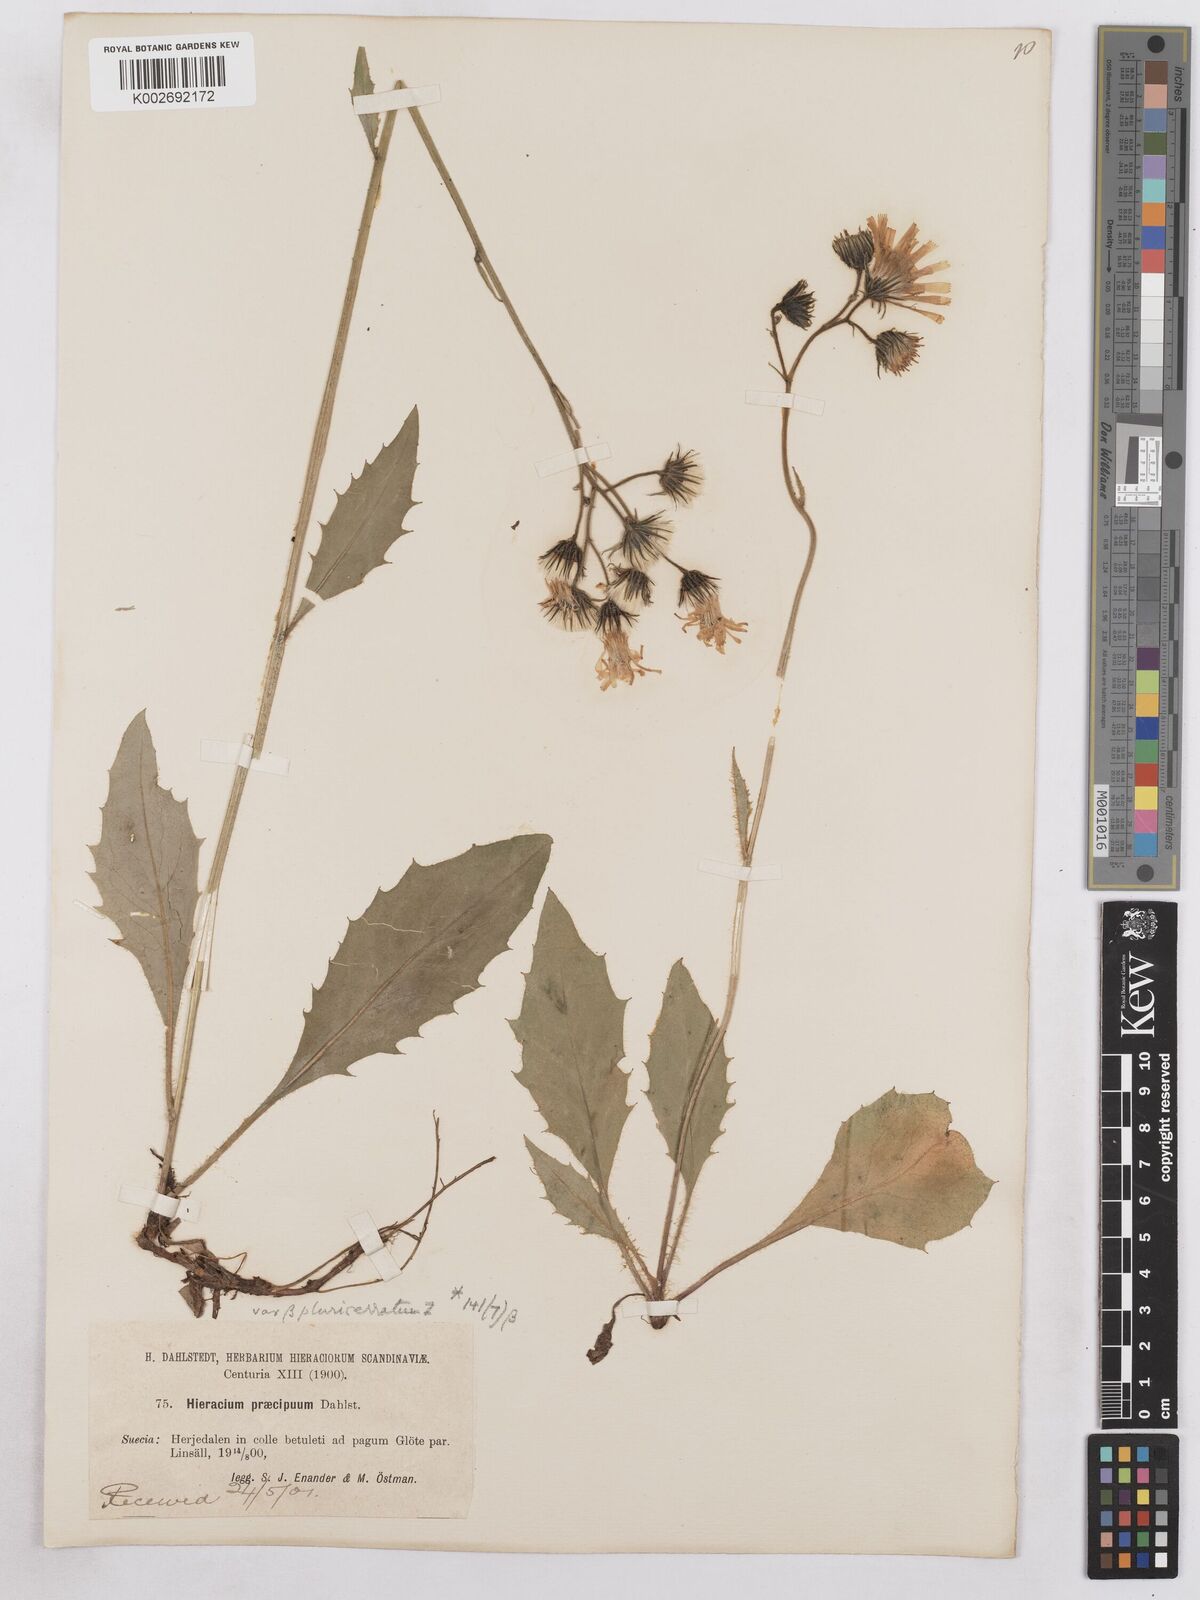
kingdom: Plantae
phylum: Tracheophyta
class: Magnoliopsida
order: Asterales
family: Asteraceae
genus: Hieracium
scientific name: Hieracium diaphanoides
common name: Fine-bracted hawkweed
